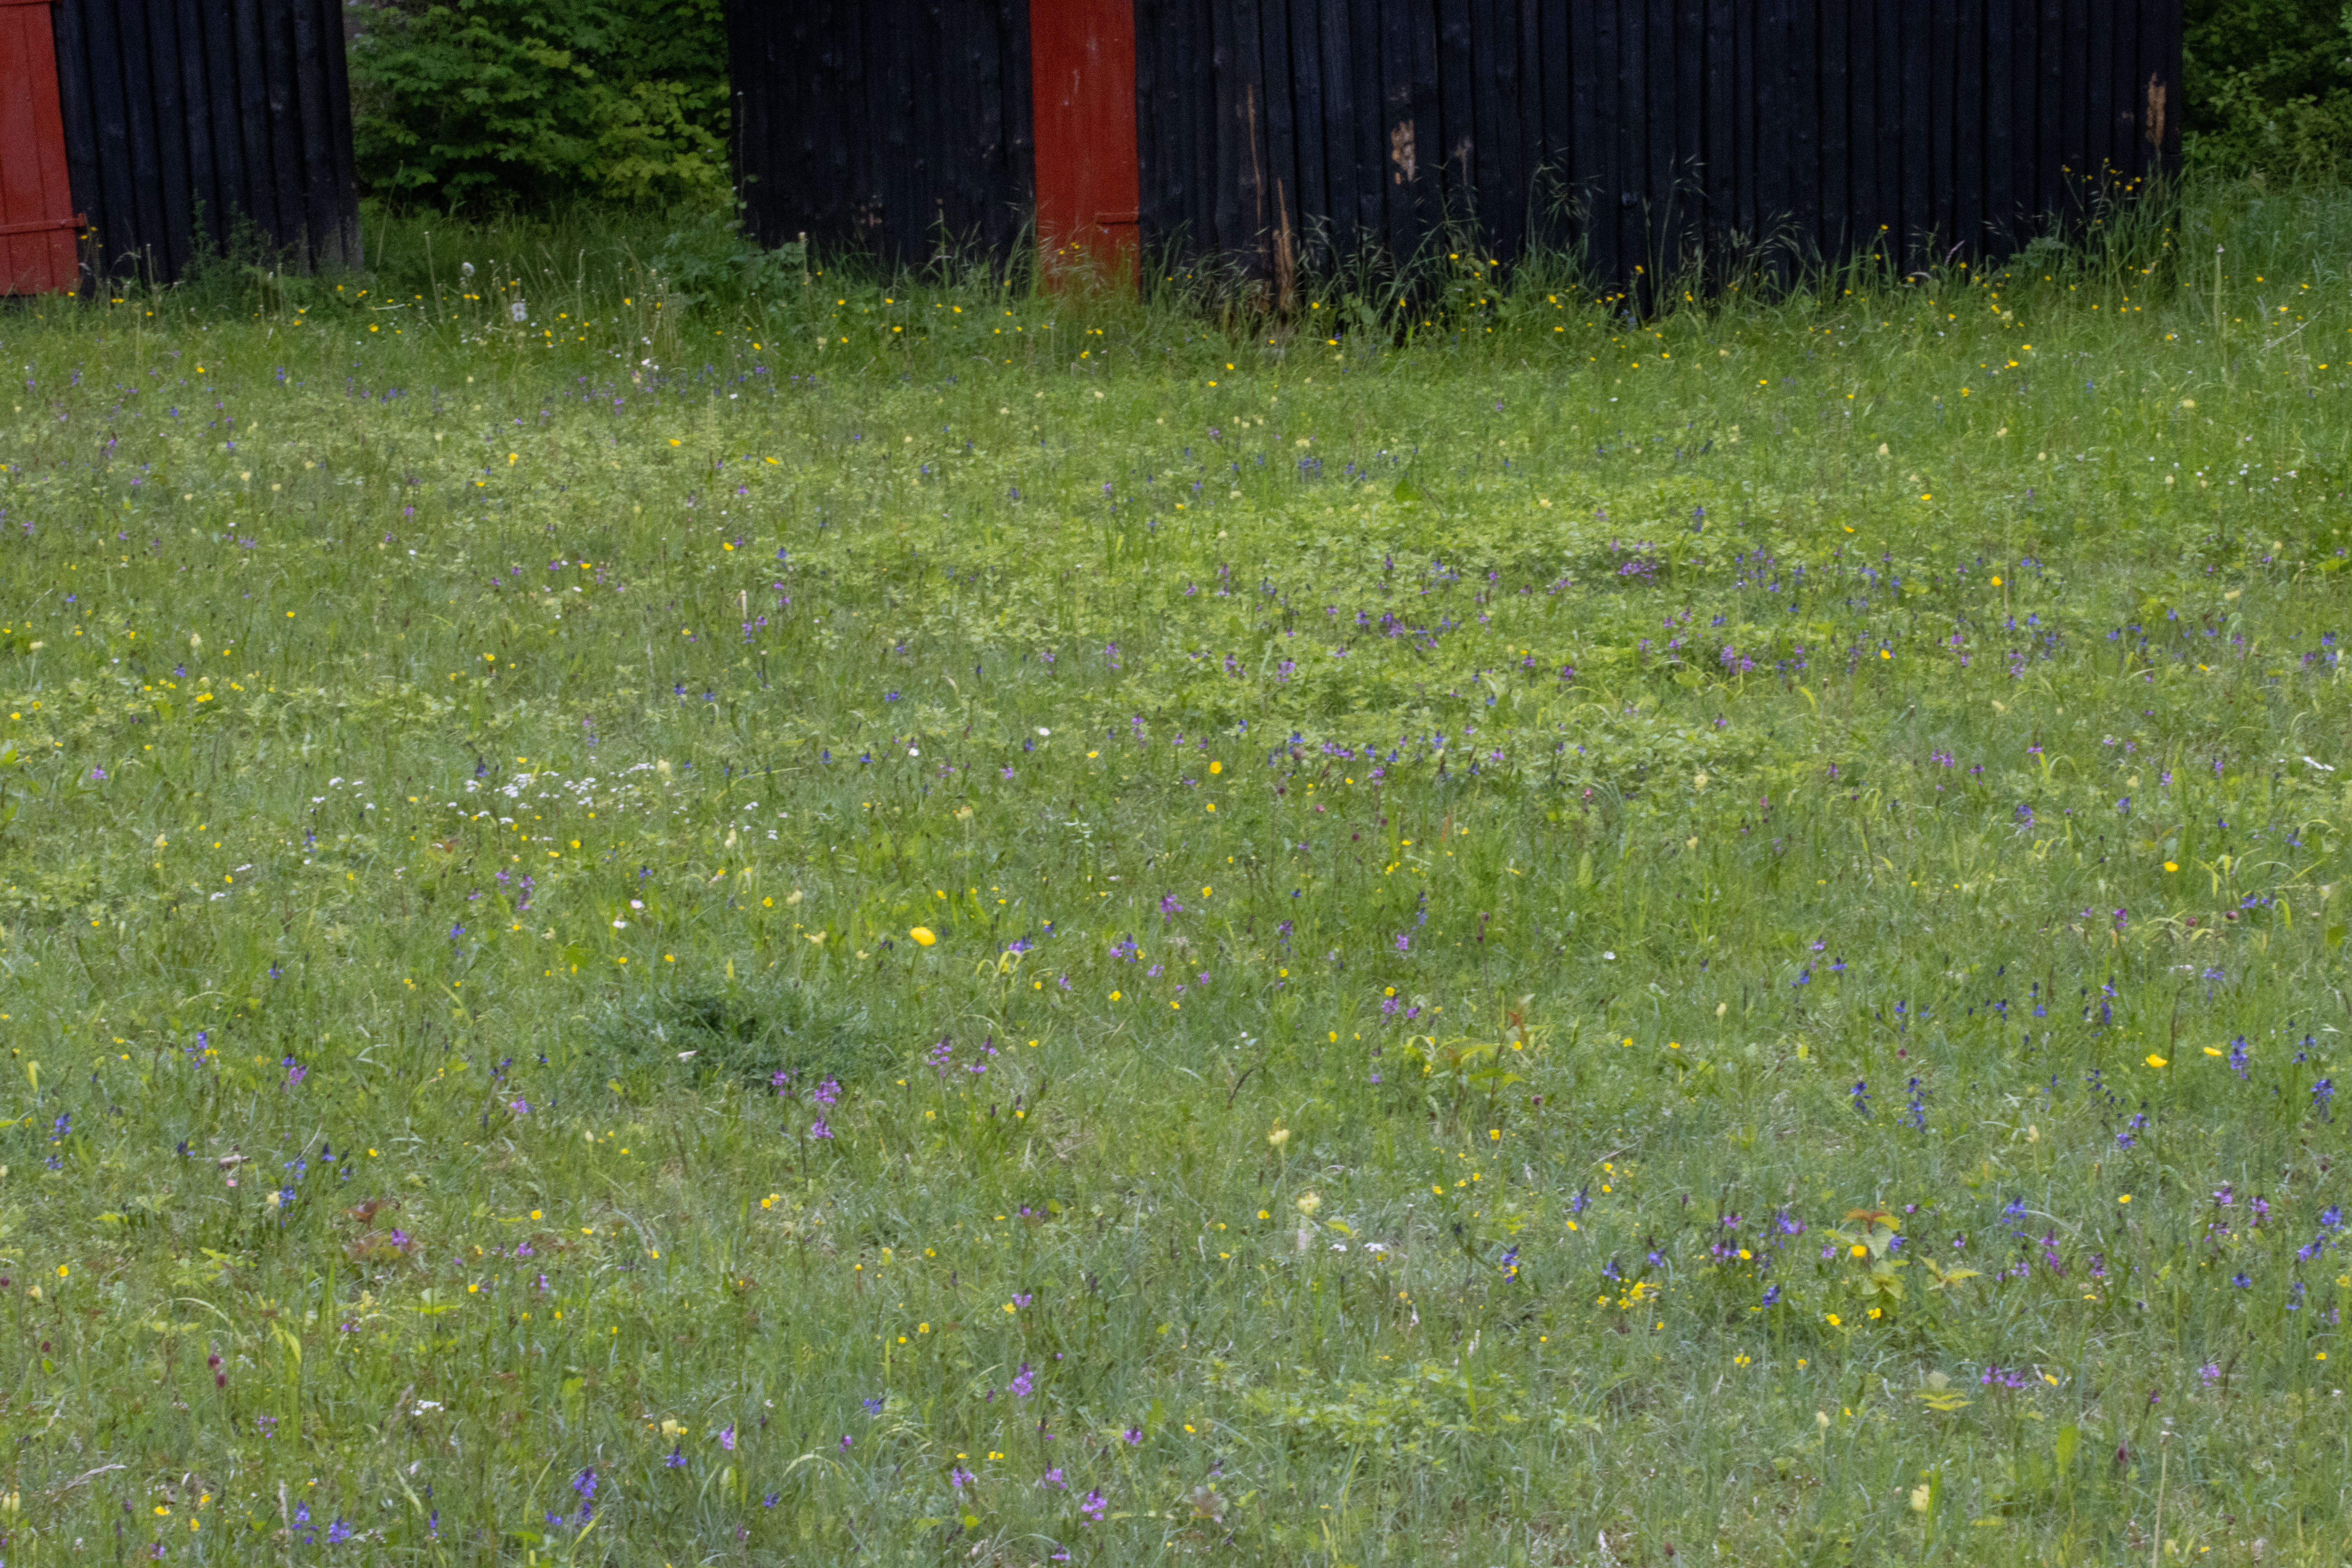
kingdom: Plantae
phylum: Tracheophyta
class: Magnoliopsida
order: Fabales
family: Polygalaceae
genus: Polygala
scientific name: Polygala vulgaris
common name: Almindelig mælkeurt
